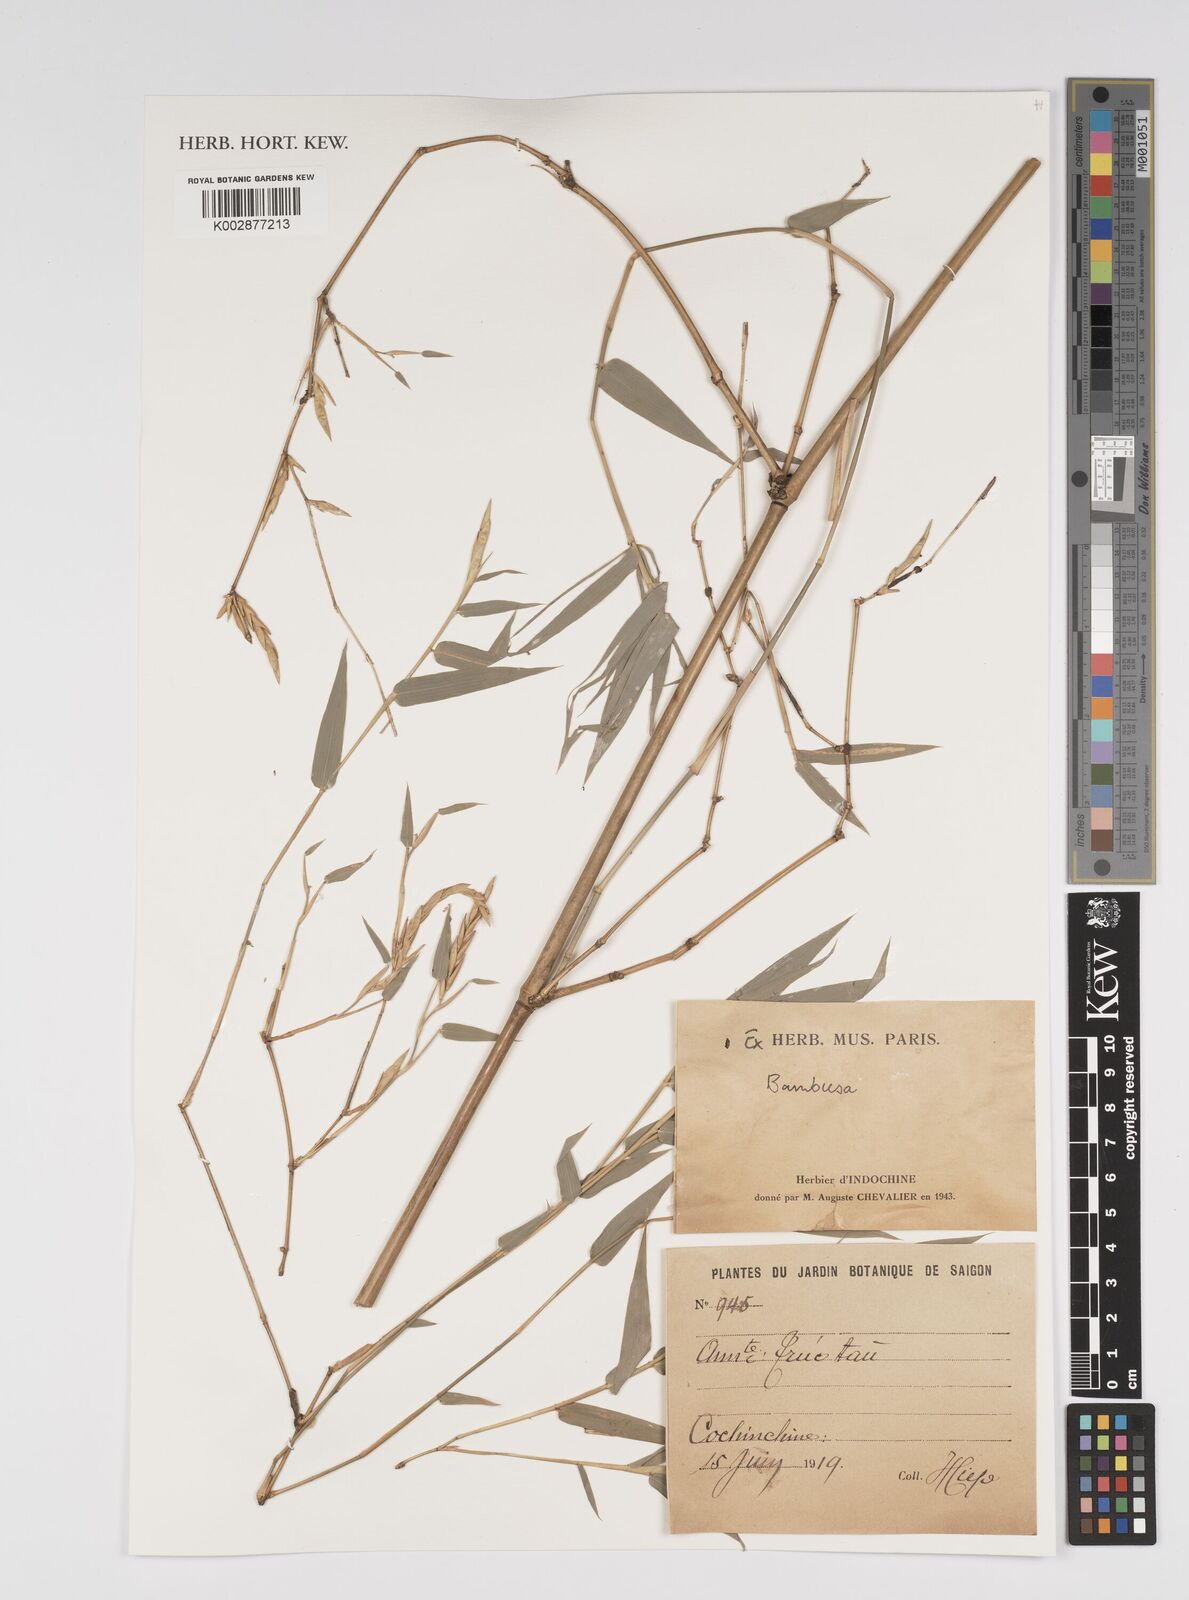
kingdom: Plantae
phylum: Tracheophyta
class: Liliopsida
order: Poales
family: Poaceae
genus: Bambusa
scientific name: Bambusa
